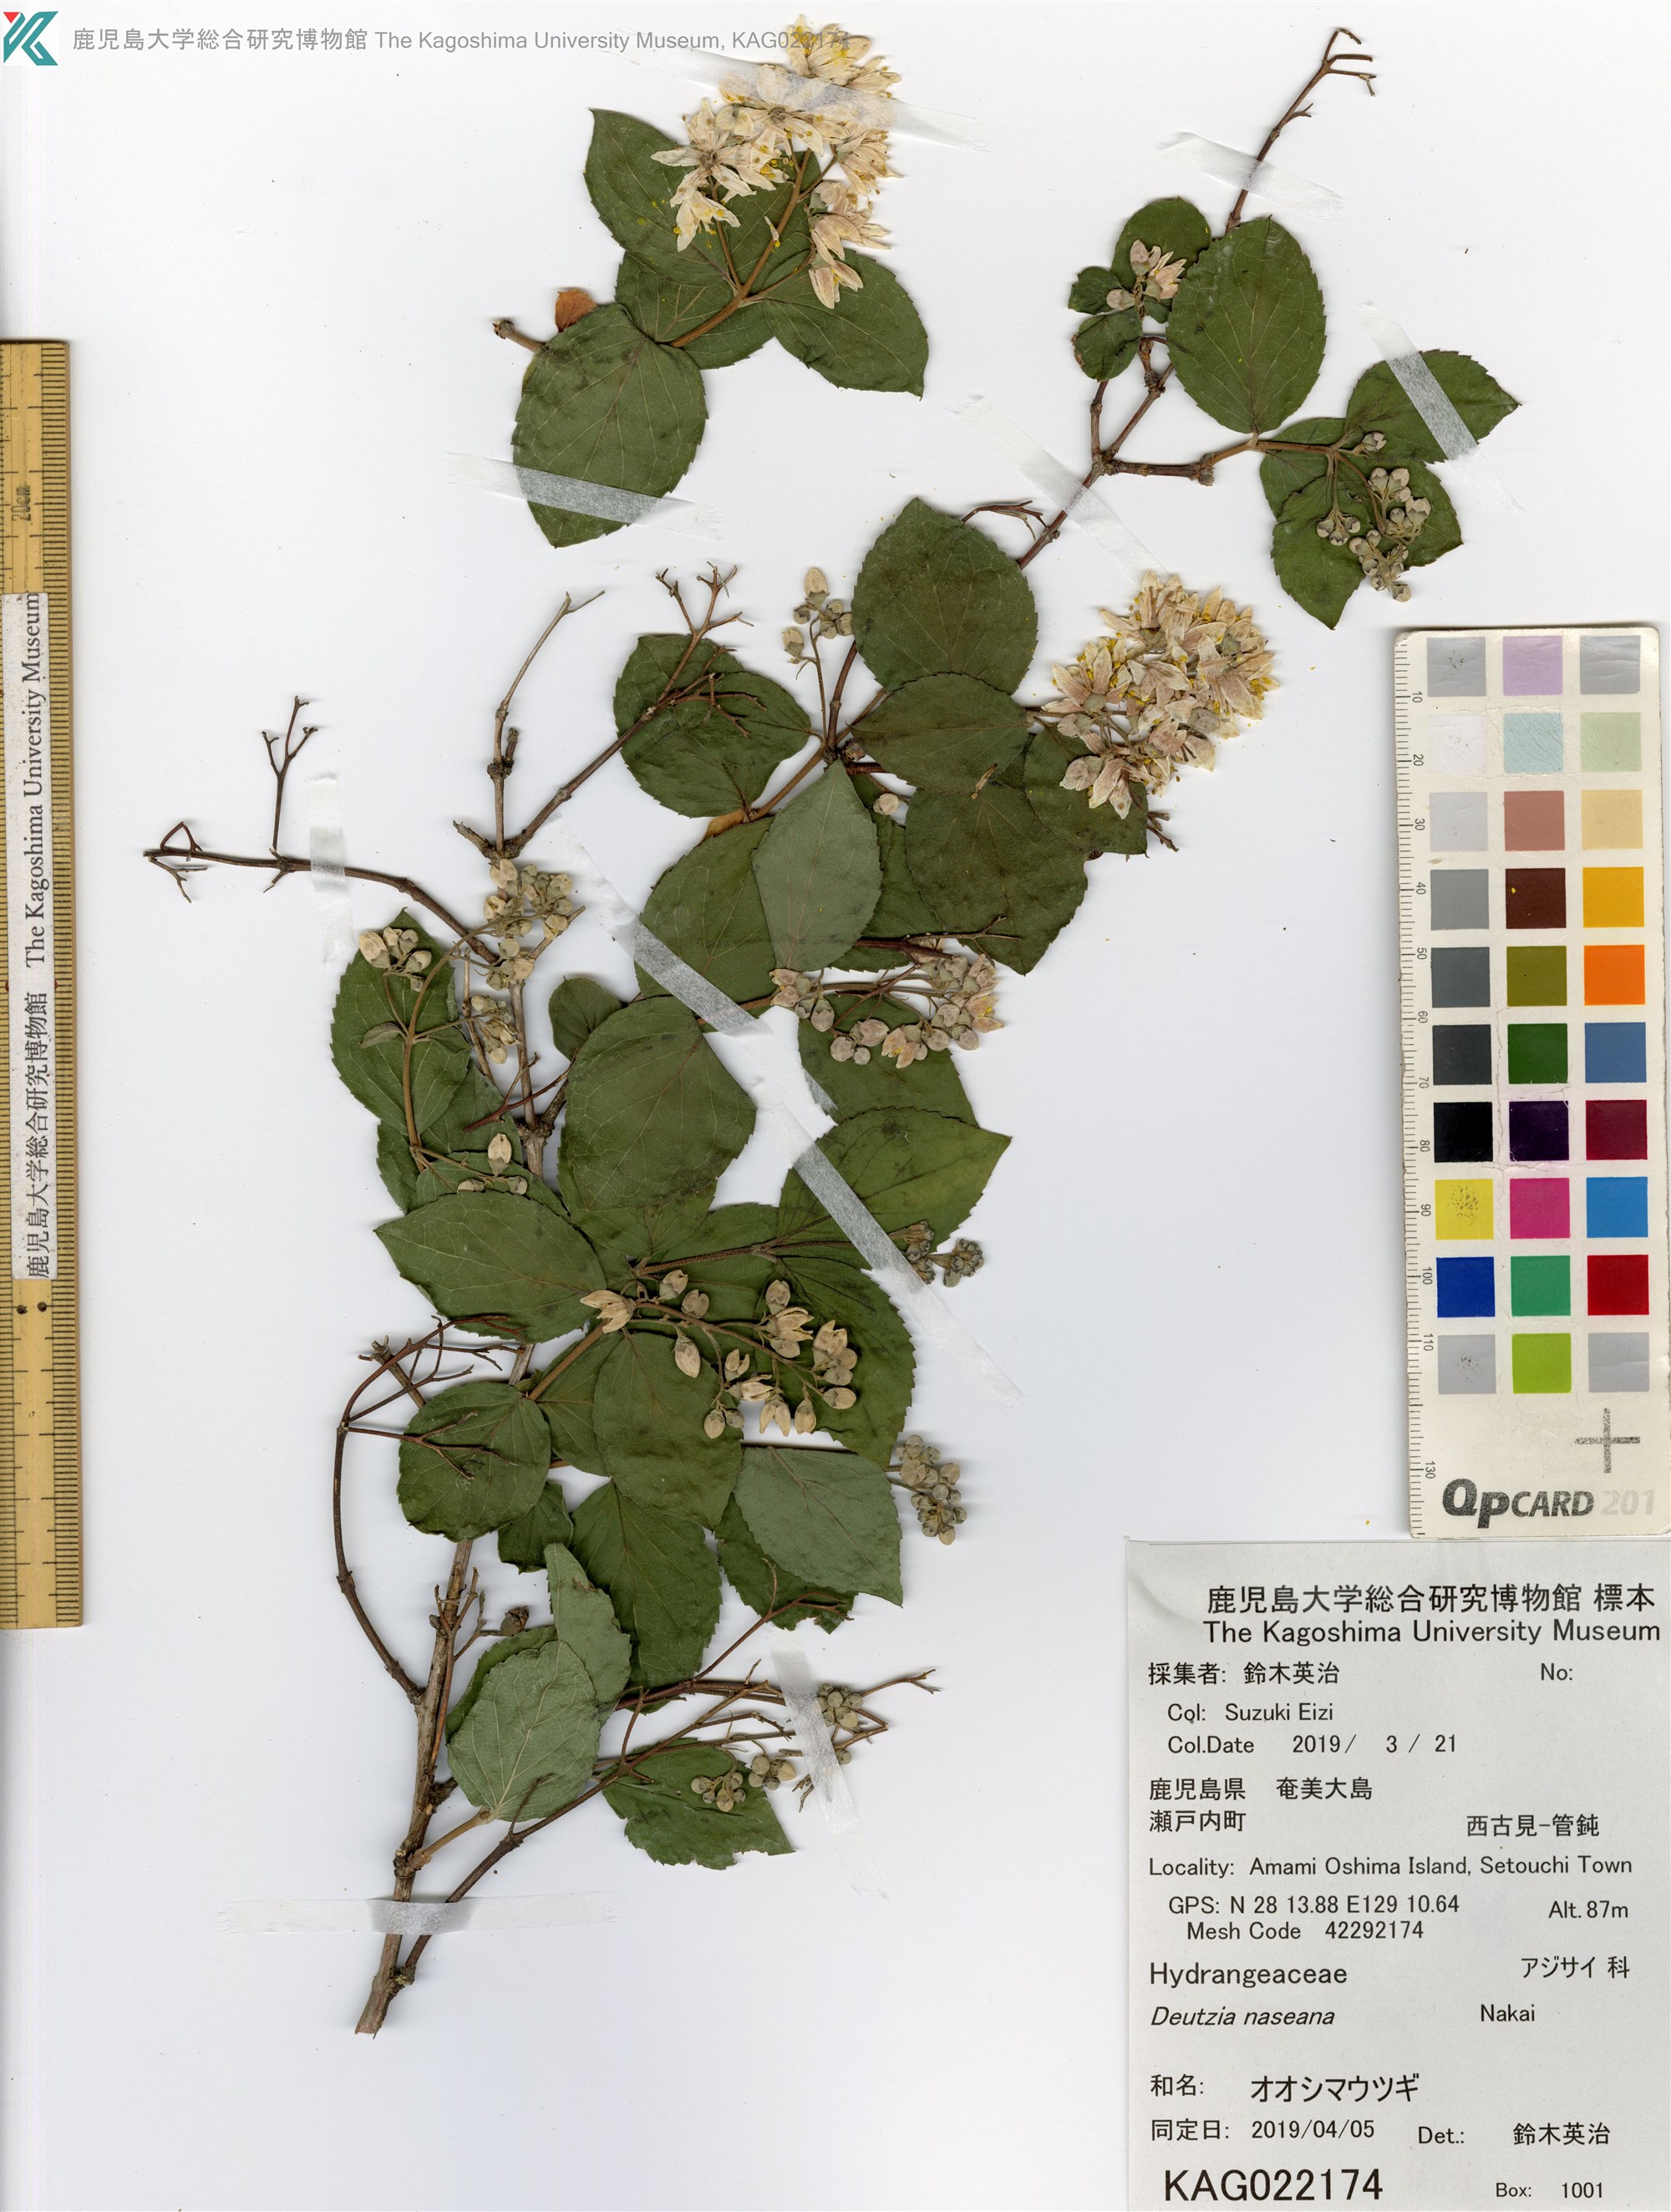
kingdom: Plantae
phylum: Tracheophyta
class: Magnoliopsida
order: Cornales
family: Hydrangeaceae
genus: Deutzia
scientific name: Deutzia naseana
